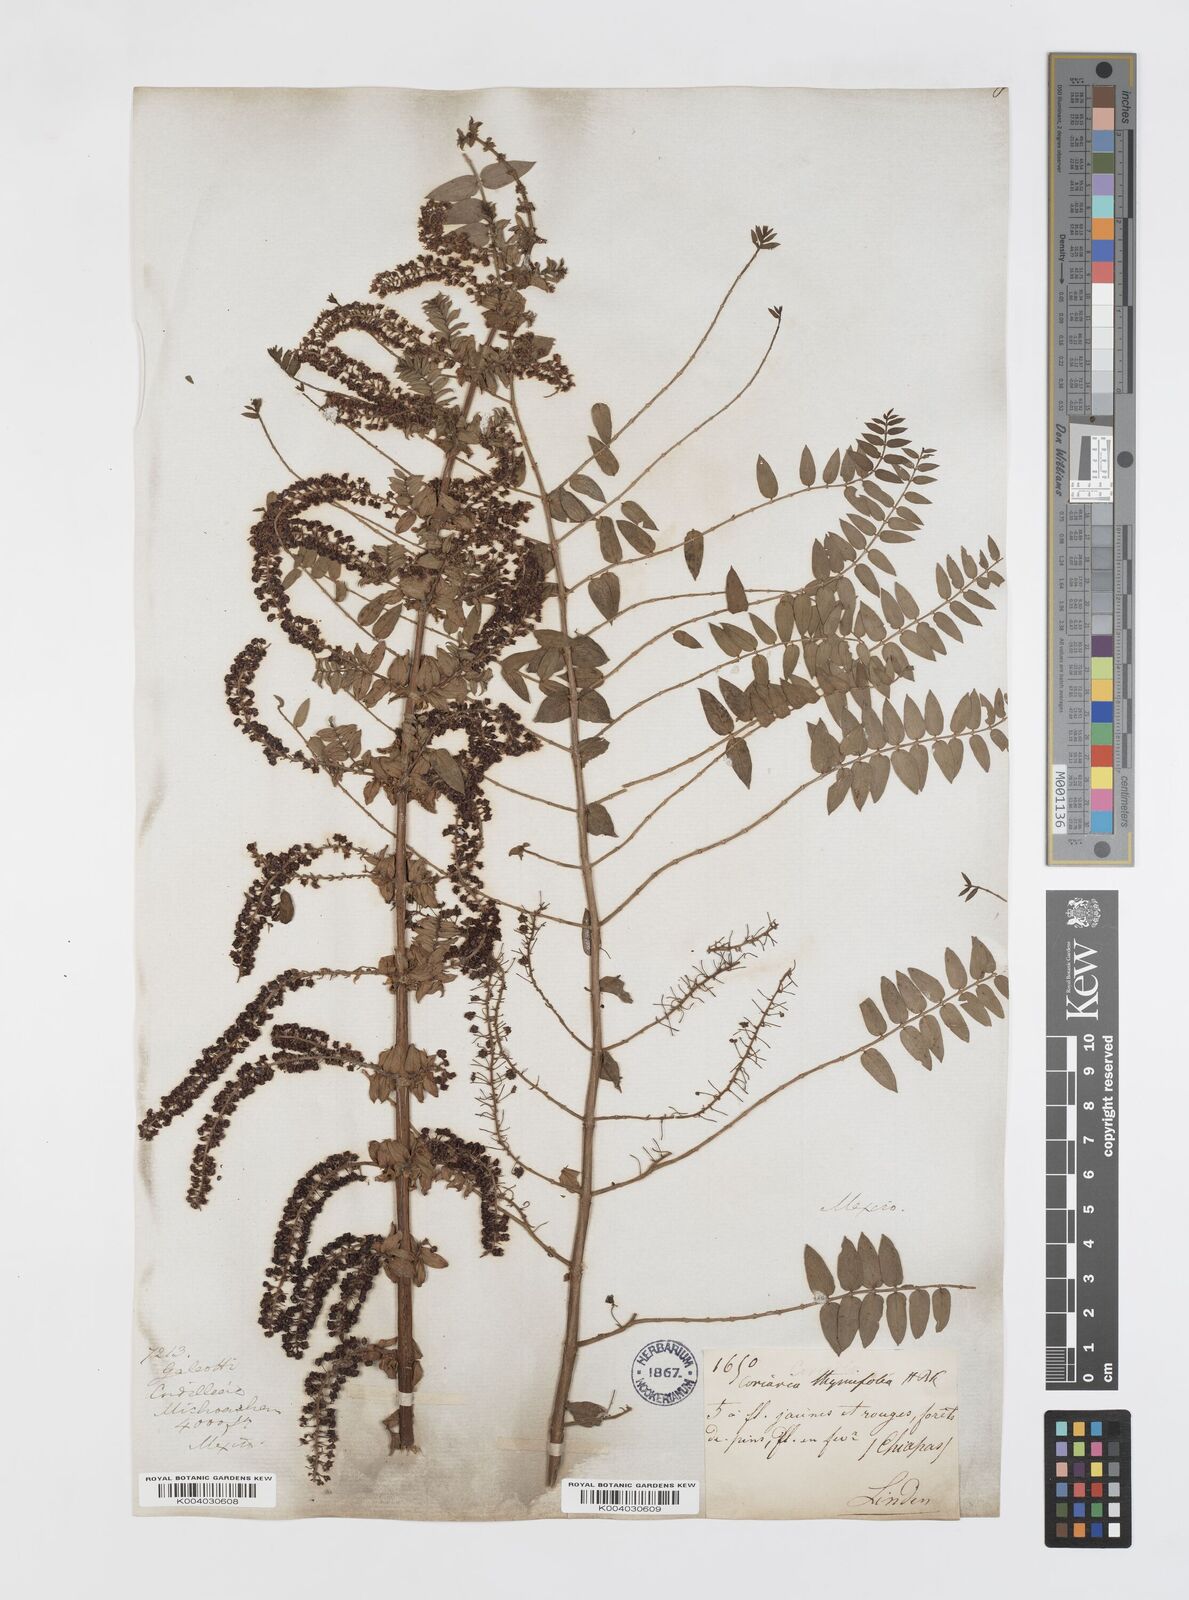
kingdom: Plantae
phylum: Tracheophyta
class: Magnoliopsida
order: Cucurbitales
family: Coriariaceae
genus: Coriaria
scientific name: Coriaria microphylla
